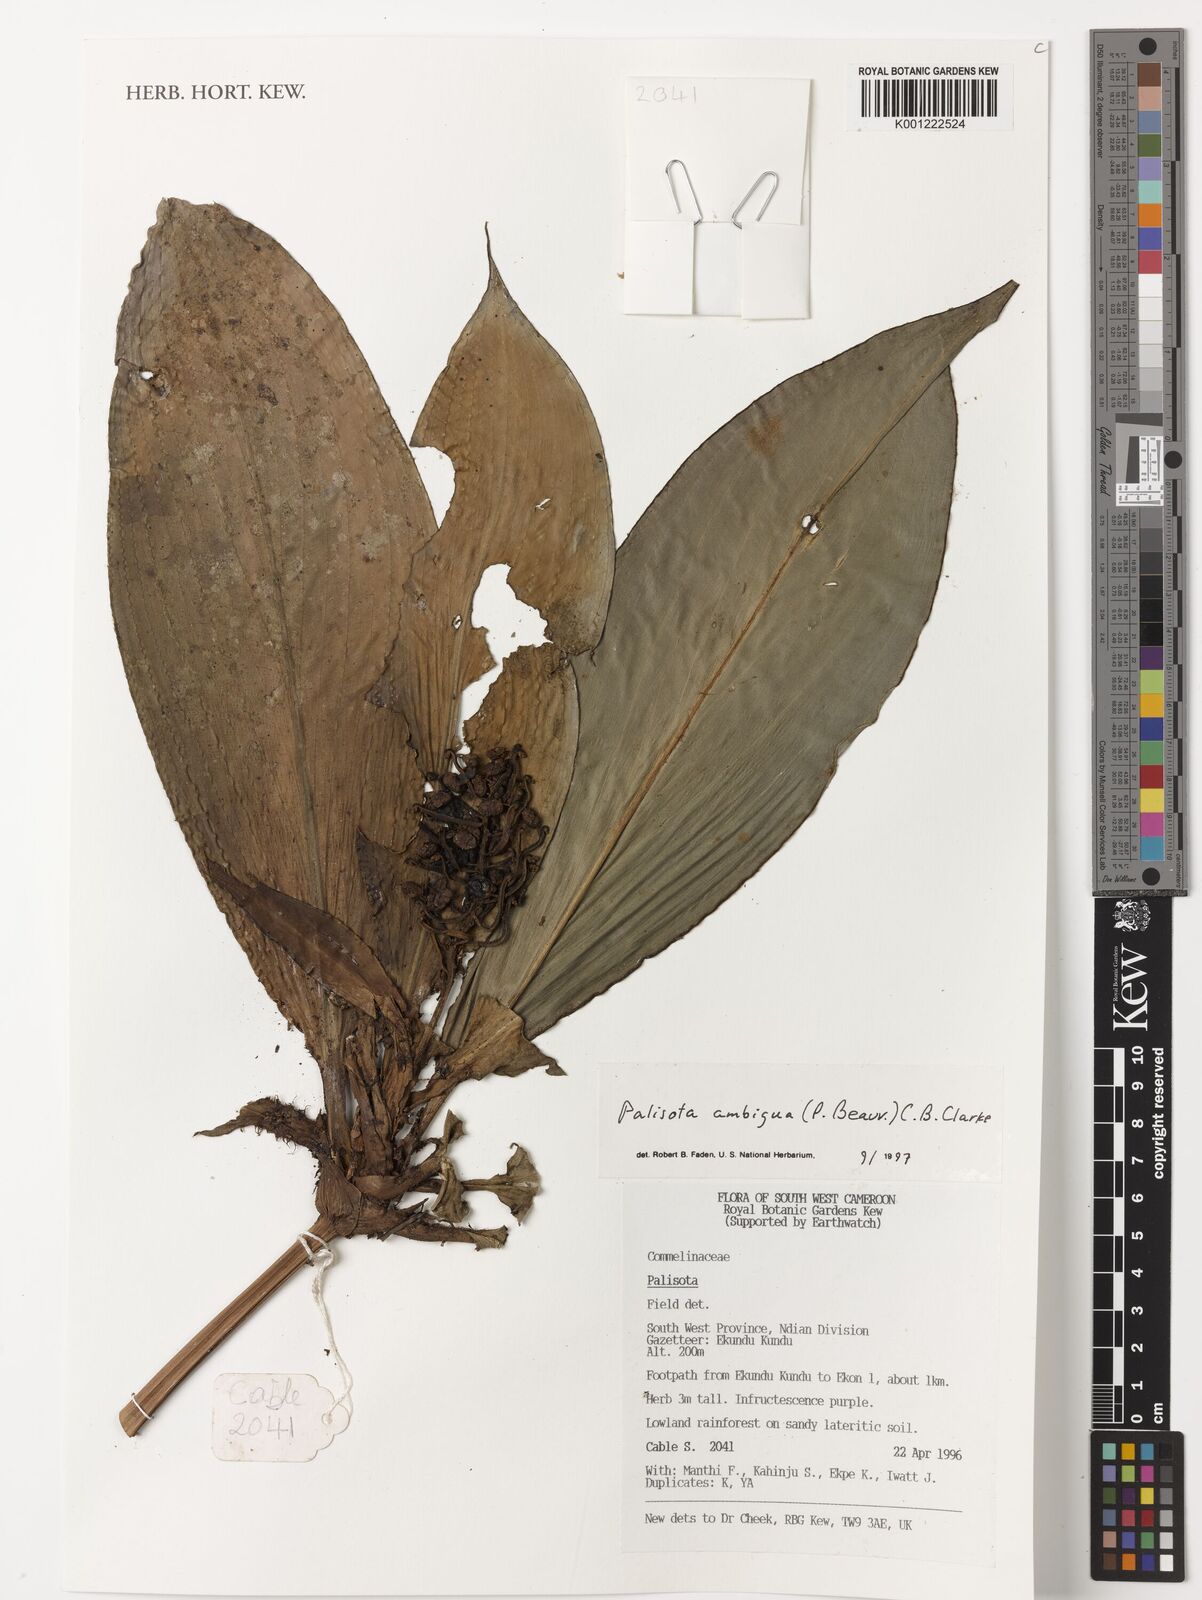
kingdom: Plantae
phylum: Tracheophyta
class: Liliopsida
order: Commelinales
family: Commelinaceae
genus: Palisota
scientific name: Palisota ambigua
